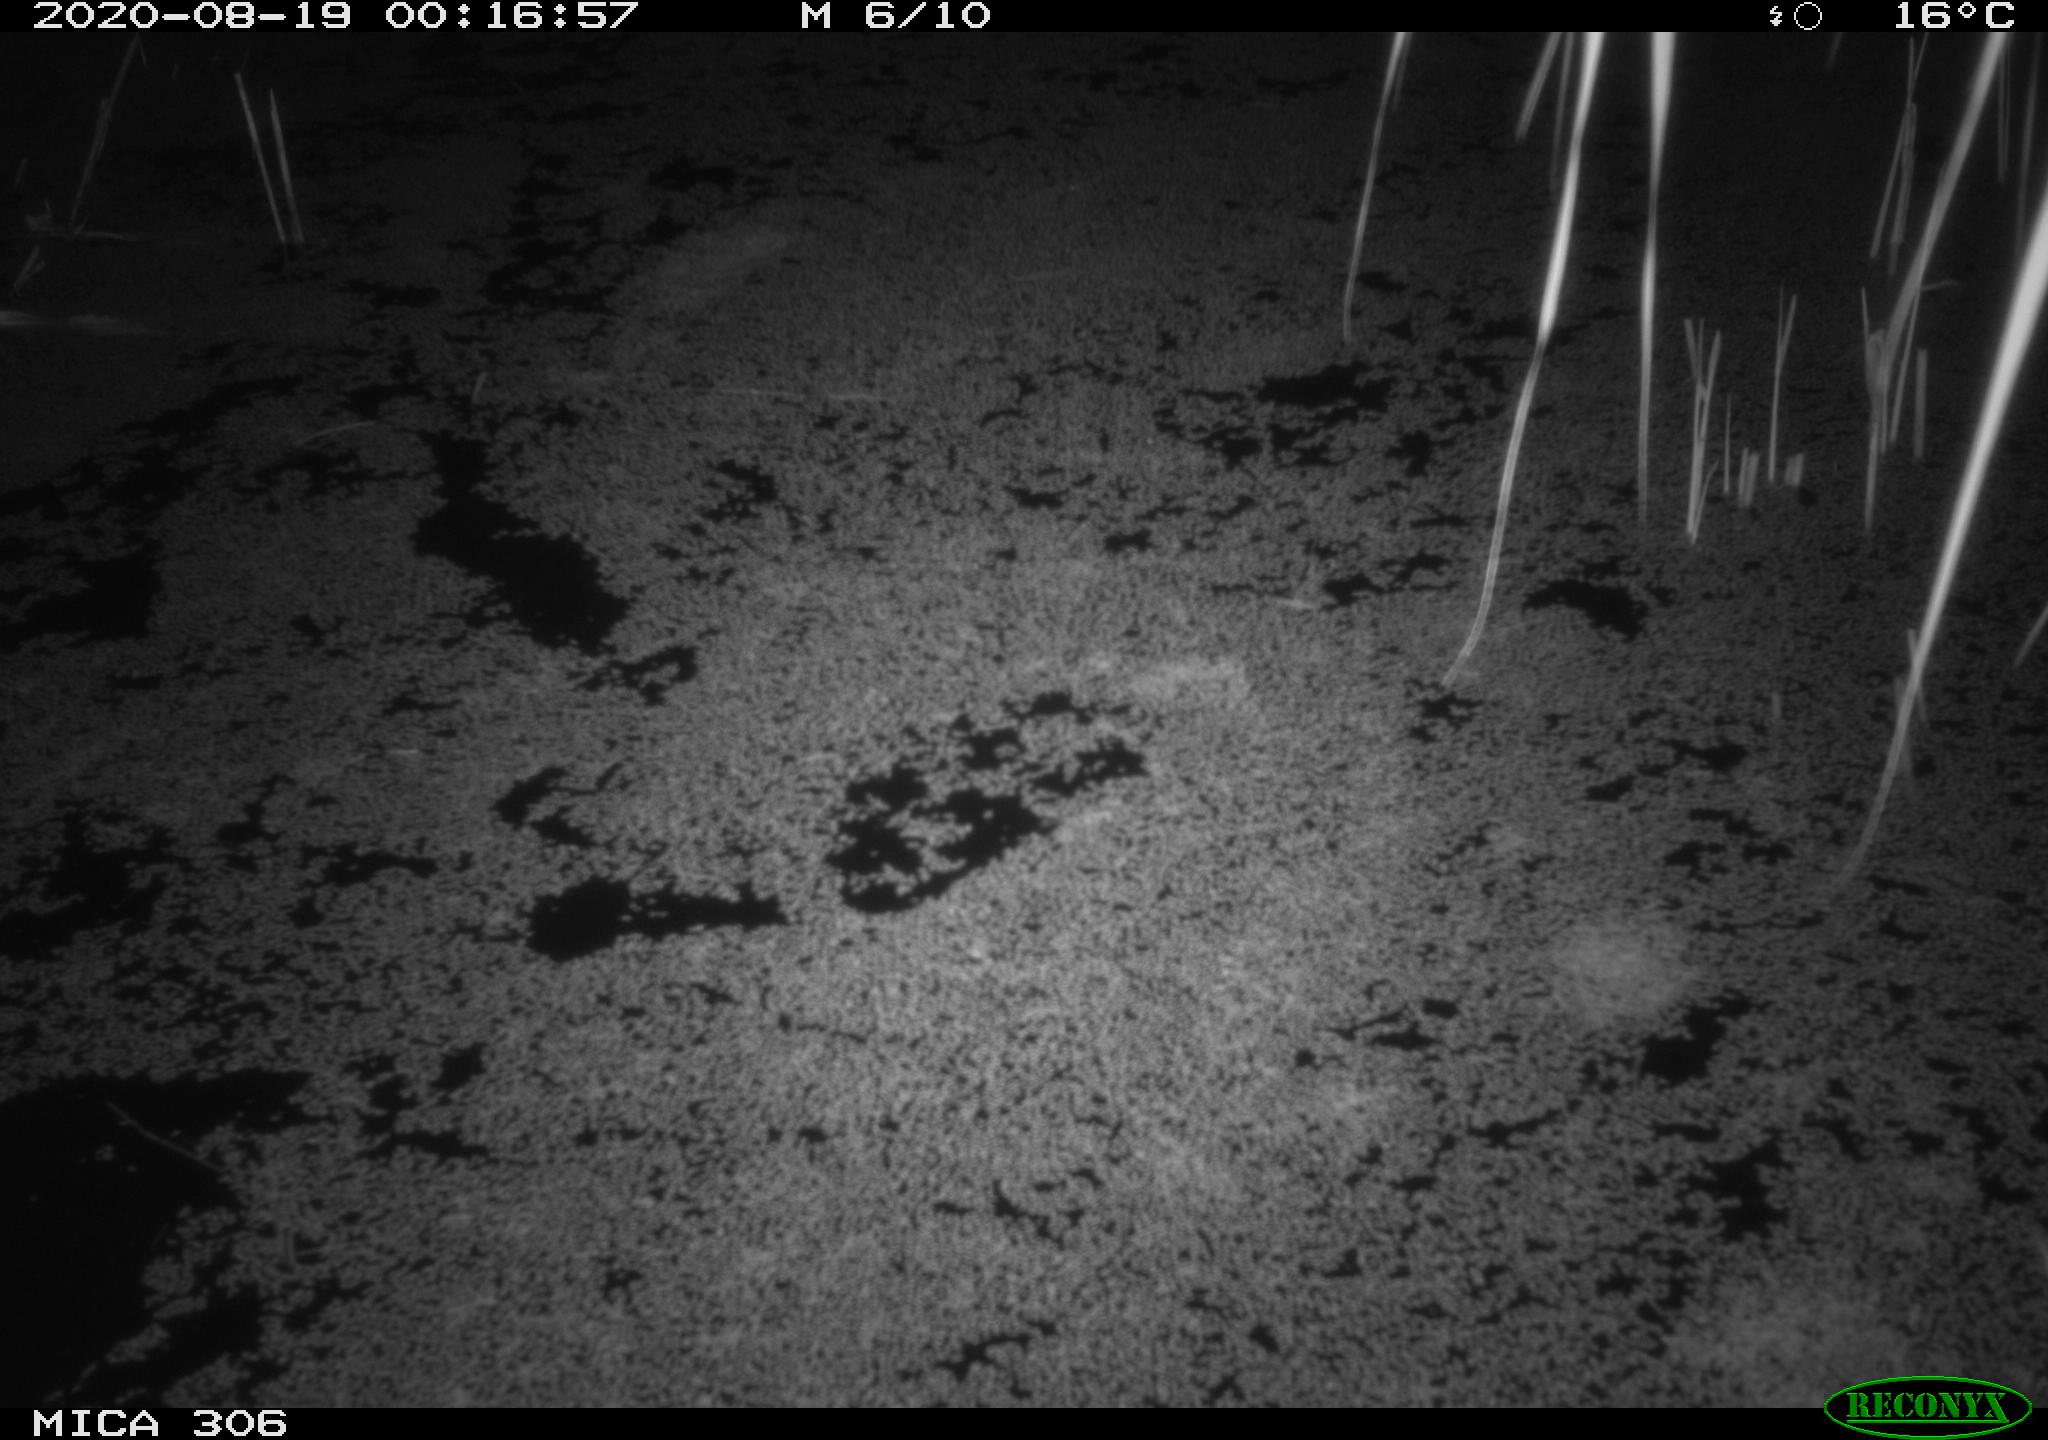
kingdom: Animalia
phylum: Chordata
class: Mammalia
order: Rodentia
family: Muridae
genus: Rattus
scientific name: Rattus norvegicus
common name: Brown rat
